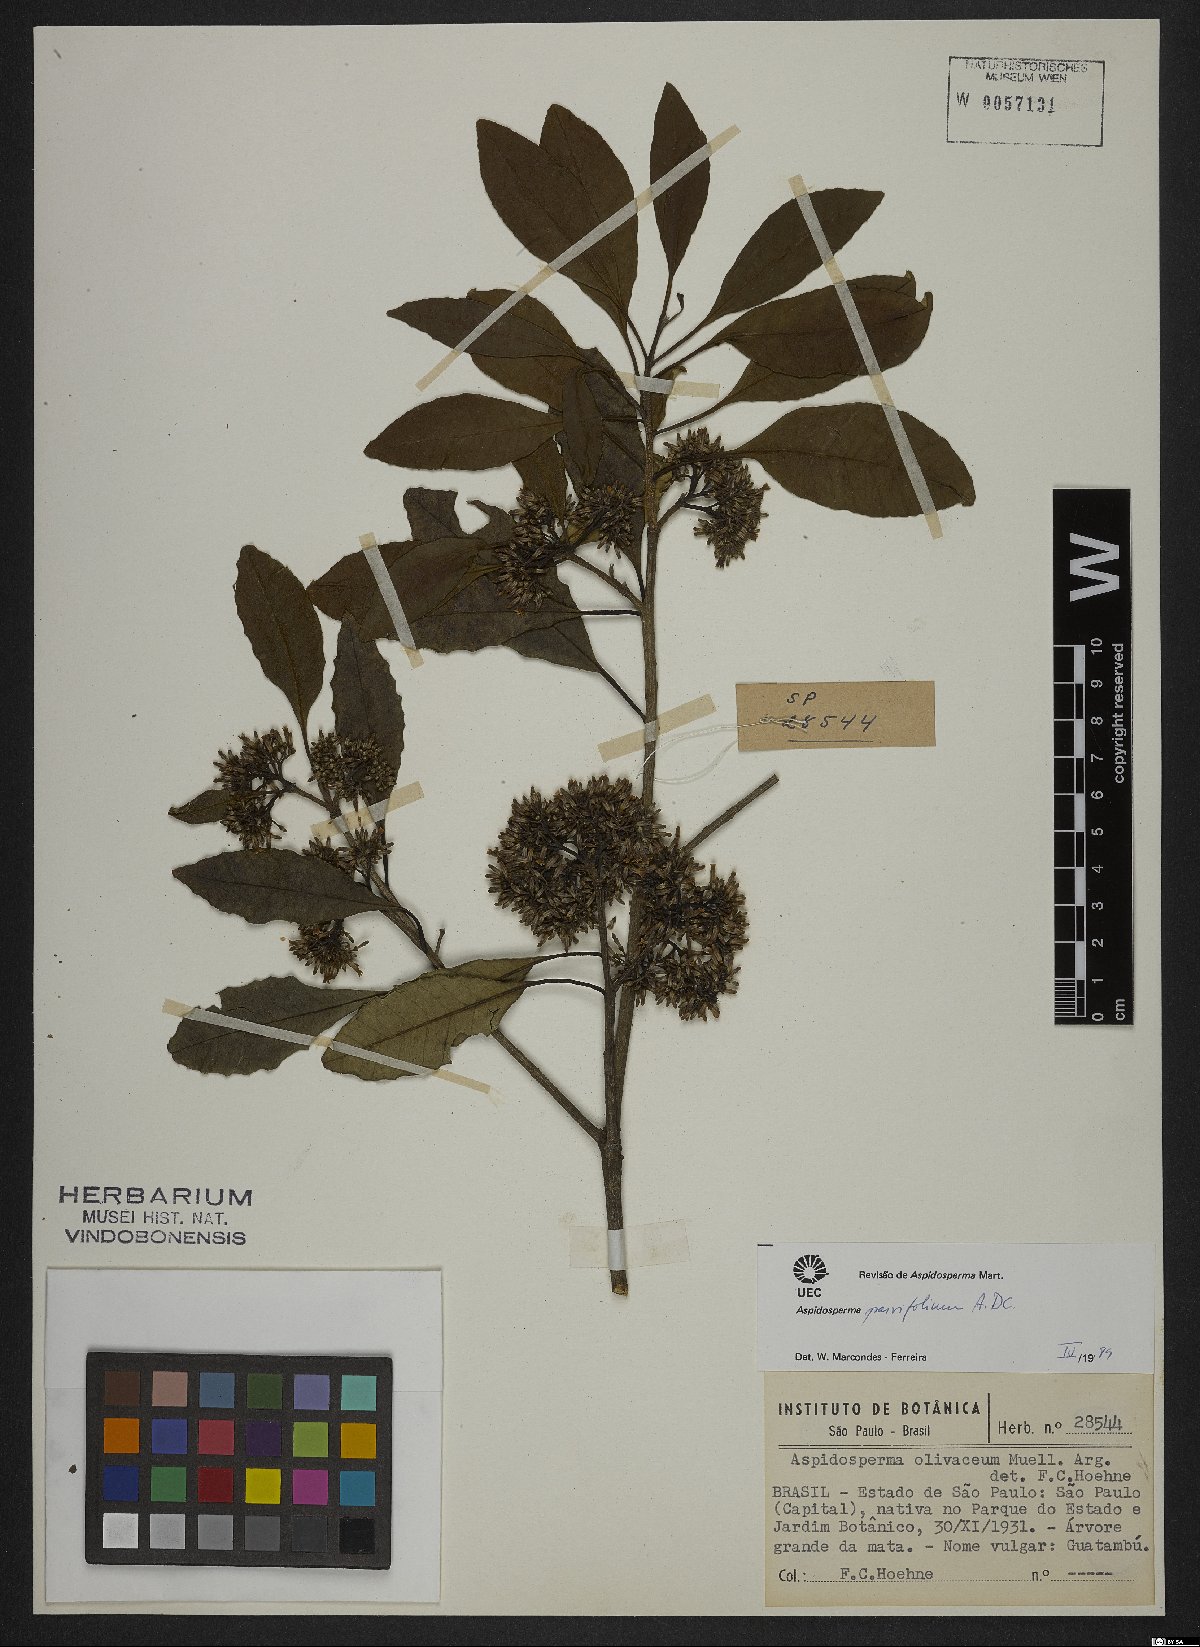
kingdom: Plantae
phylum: Tracheophyta
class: Magnoliopsida
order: Gentianales
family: Apocynaceae
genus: Aspidosperma
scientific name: Aspidosperma parvifolium
